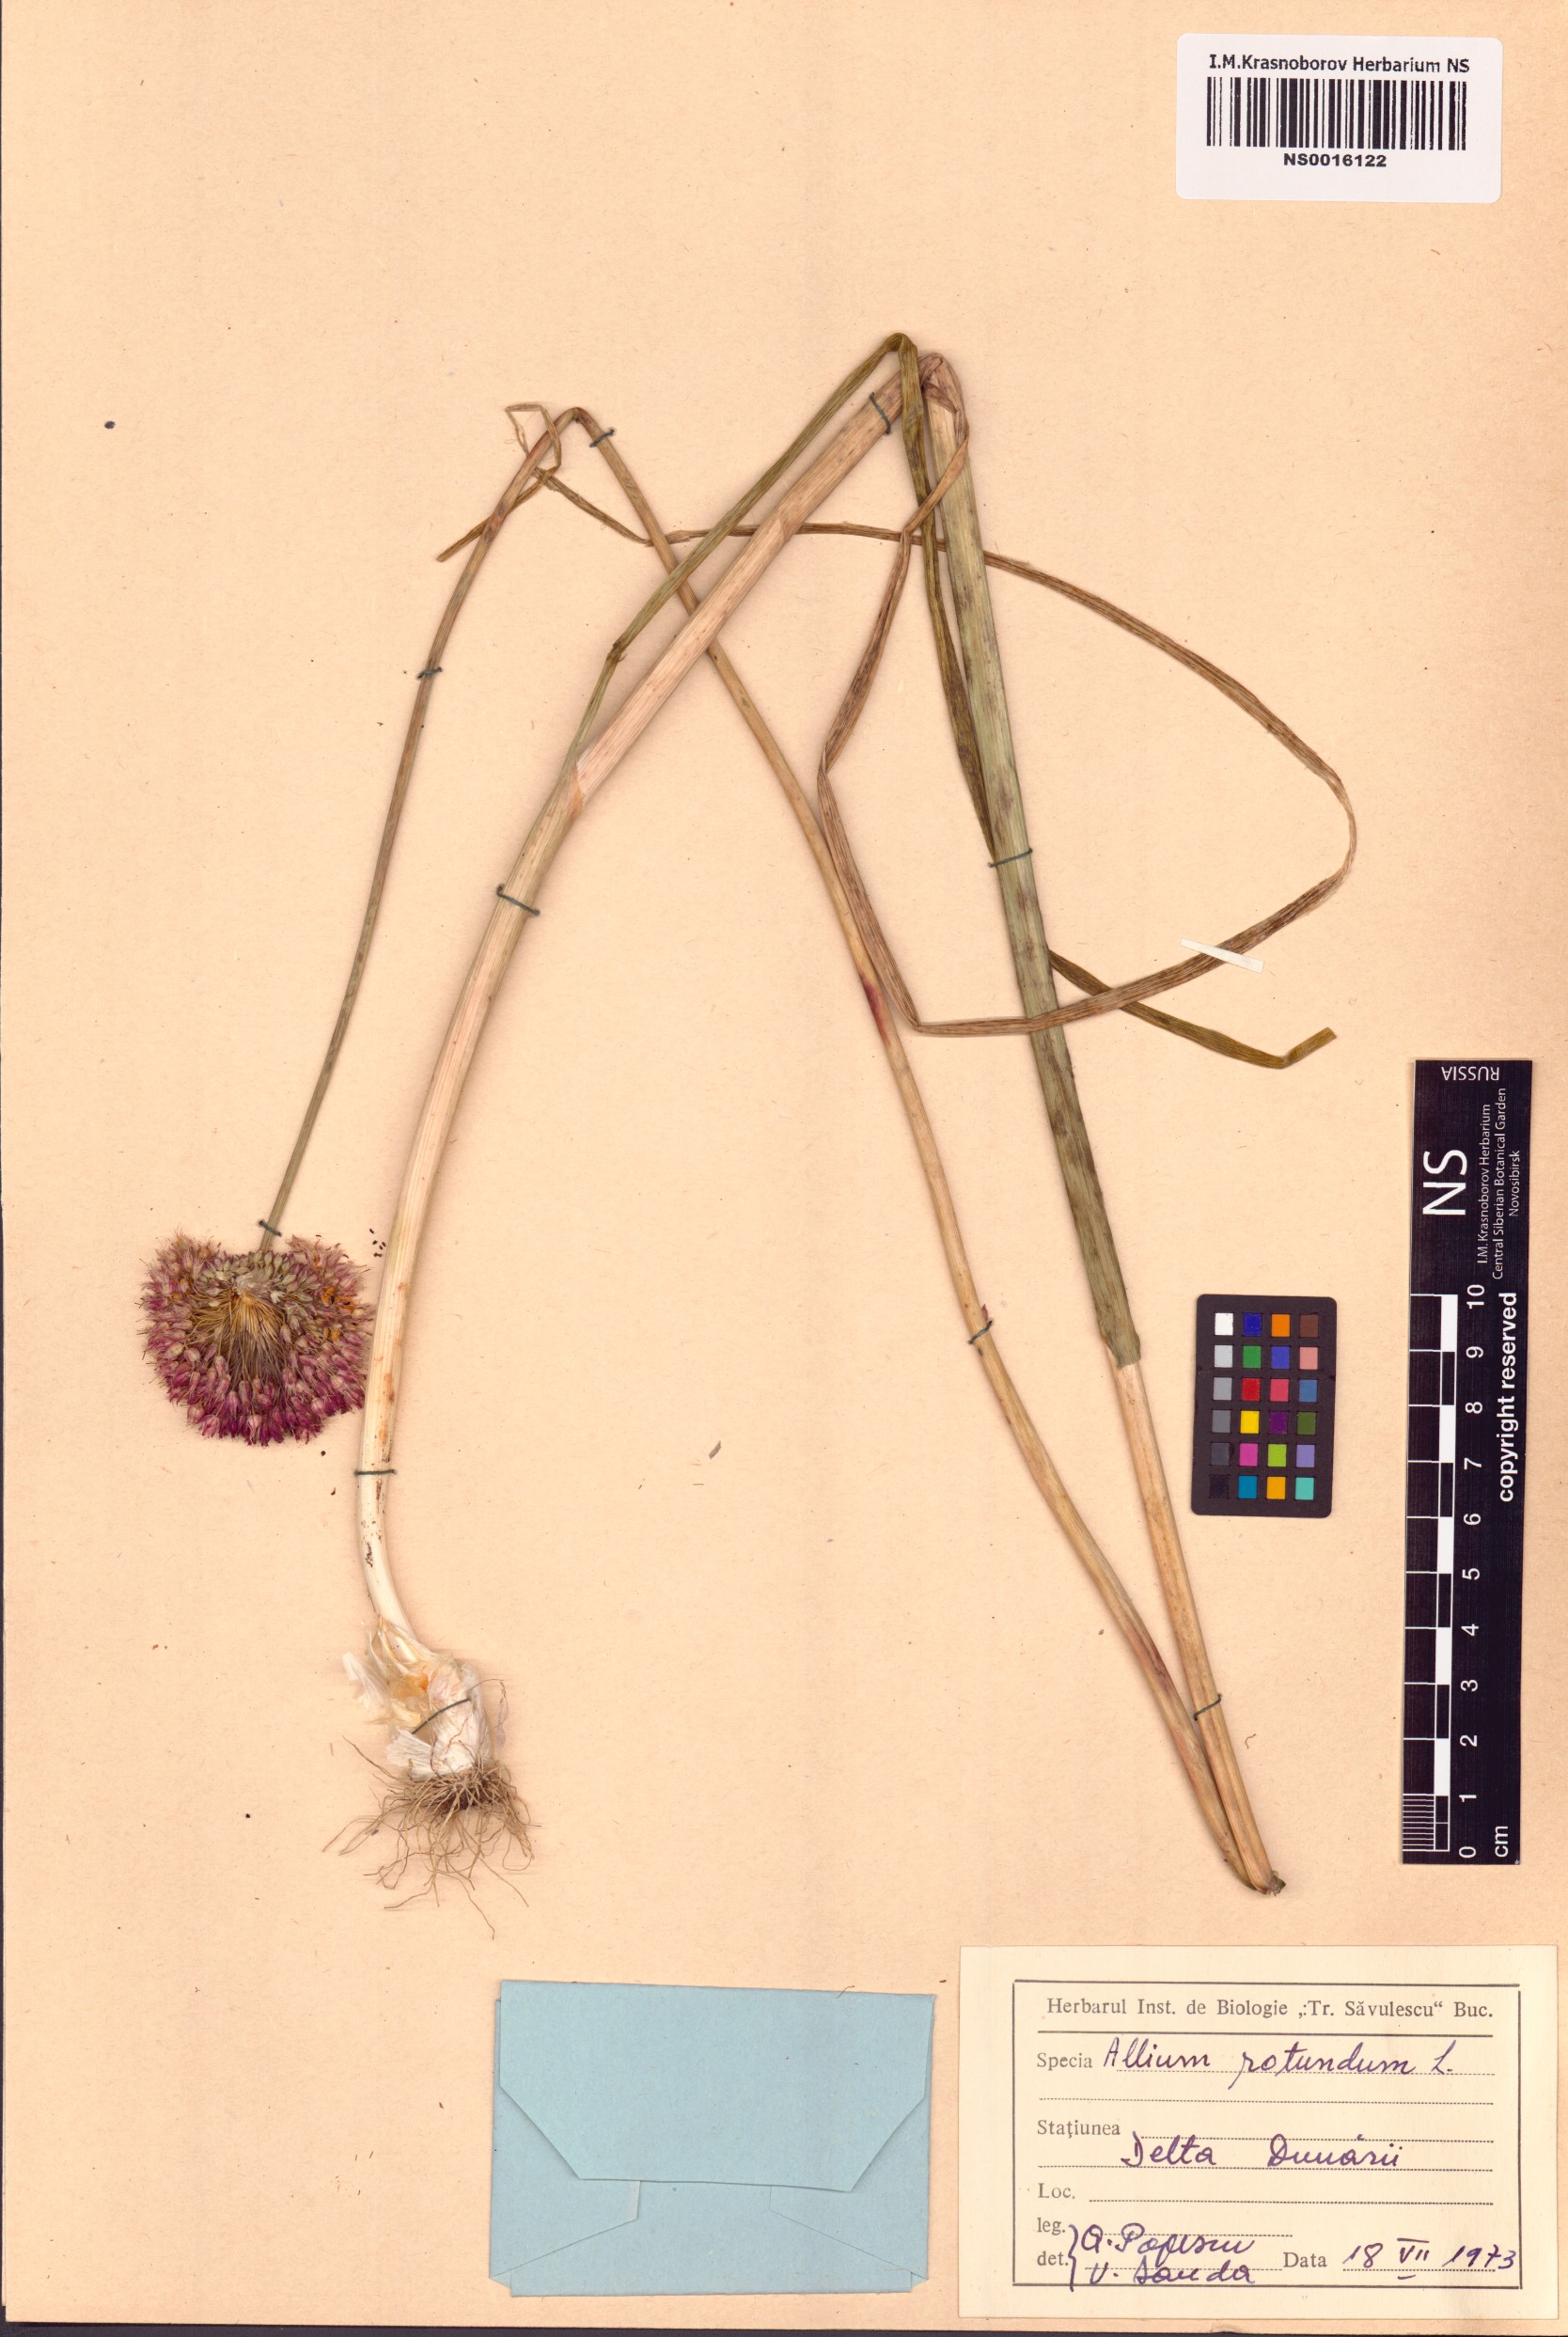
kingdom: Plantae
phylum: Tracheophyta
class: Liliopsida
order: Asparagales
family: Amaryllidaceae
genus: Allium
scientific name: Allium rotundum
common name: Sand leek
